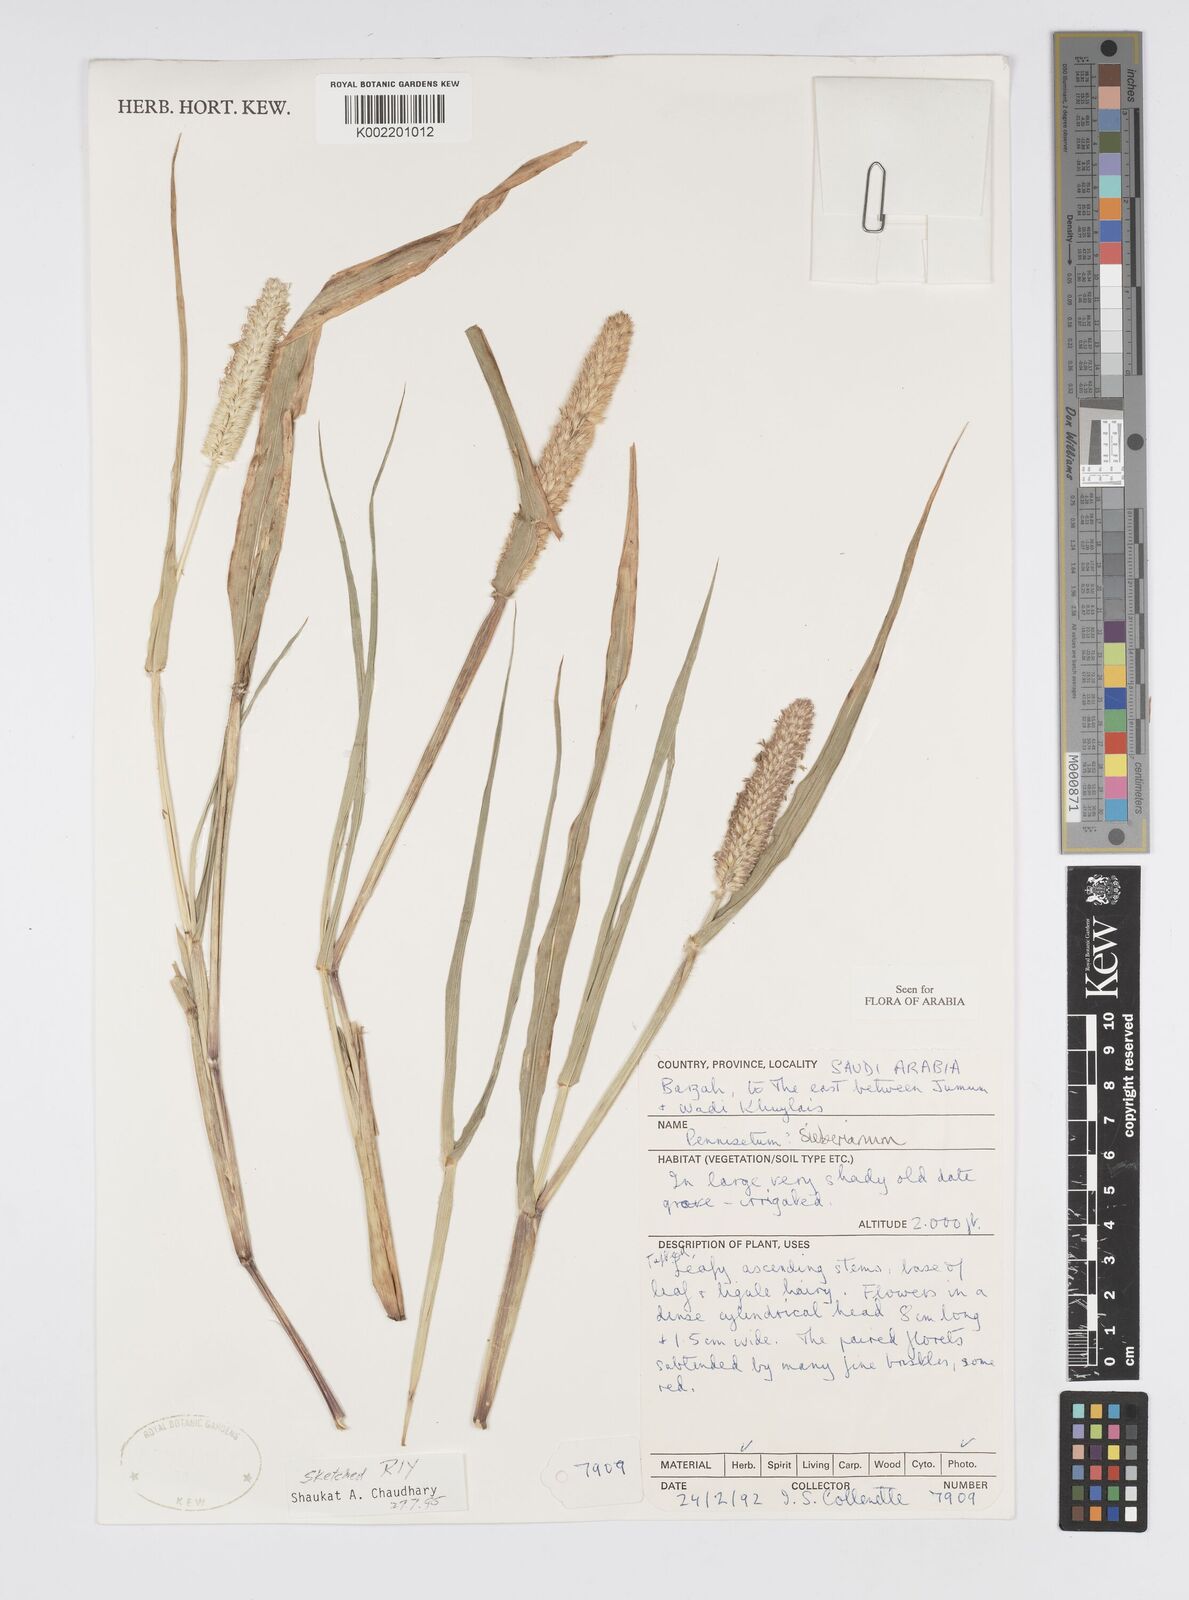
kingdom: Plantae
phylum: Tracheophyta
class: Liliopsida
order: Poales
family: Poaceae
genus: Cenchrus
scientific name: Cenchrus sieberianus
